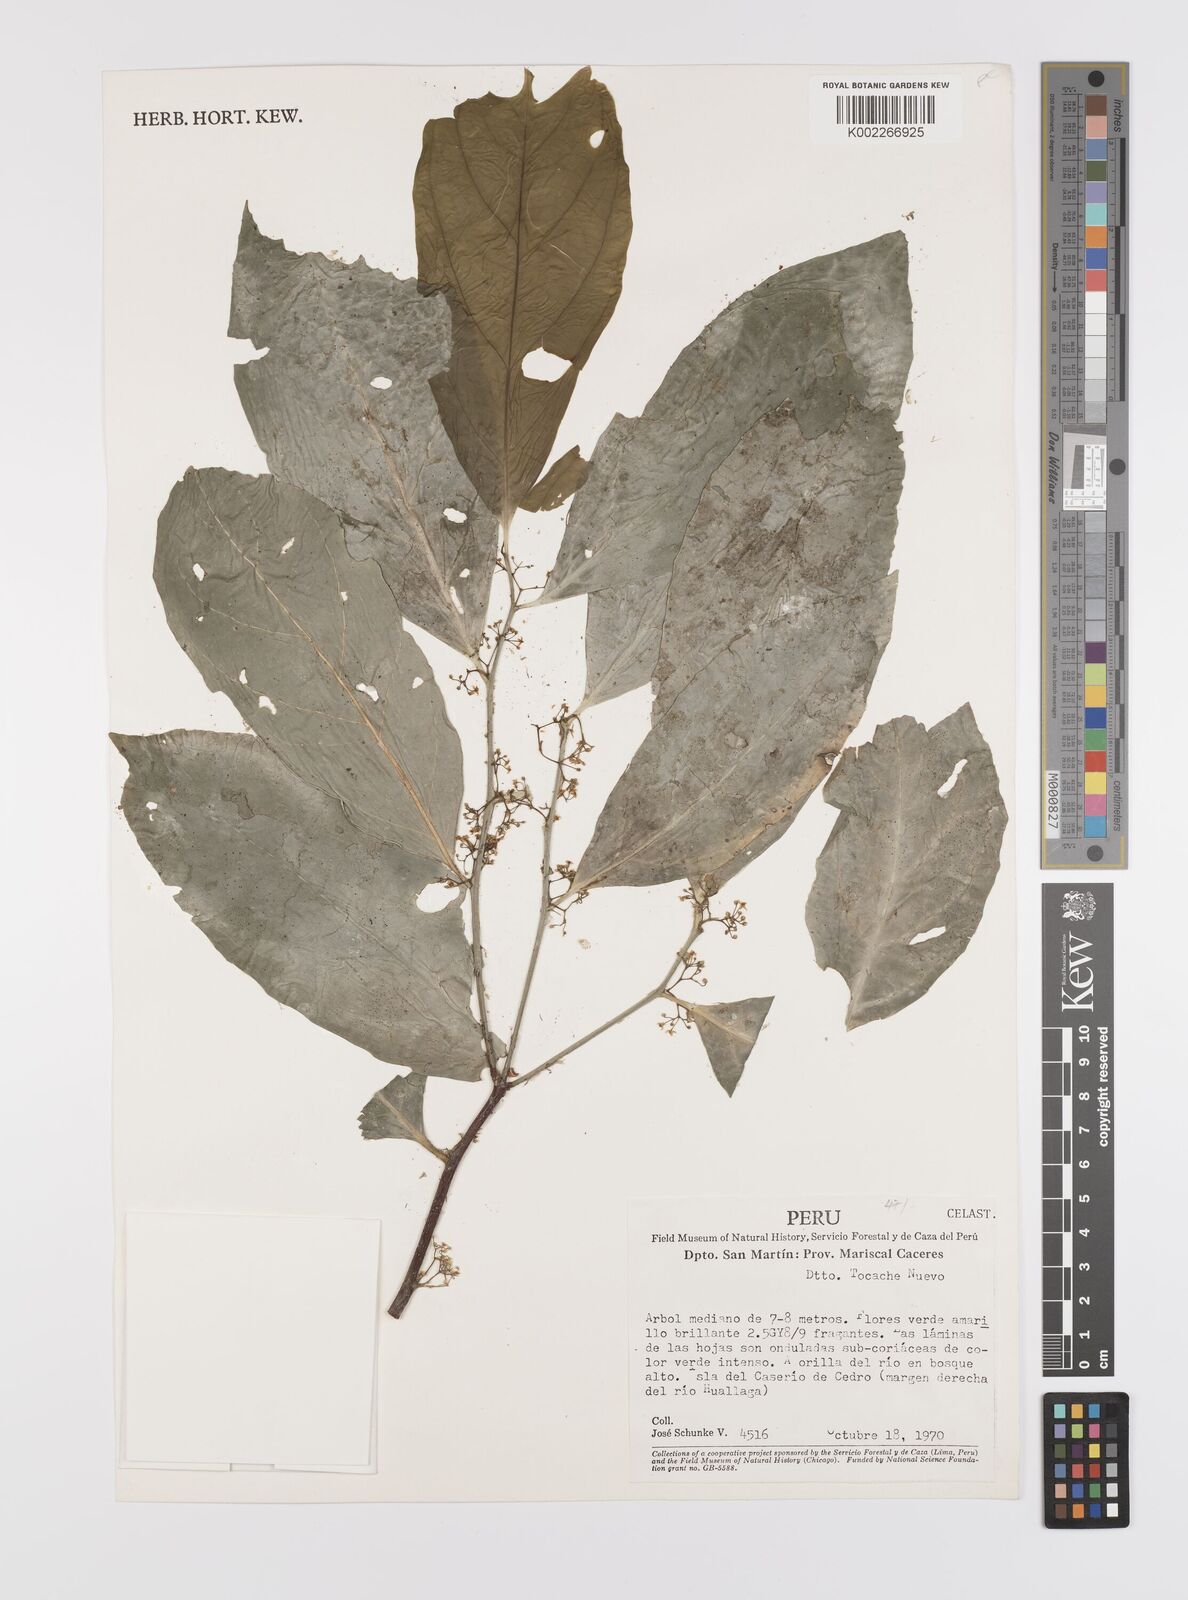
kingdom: Plantae
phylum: Tracheophyta
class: Magnoliopsida
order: Celastrales
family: Celastraceae
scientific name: Celastraceae
